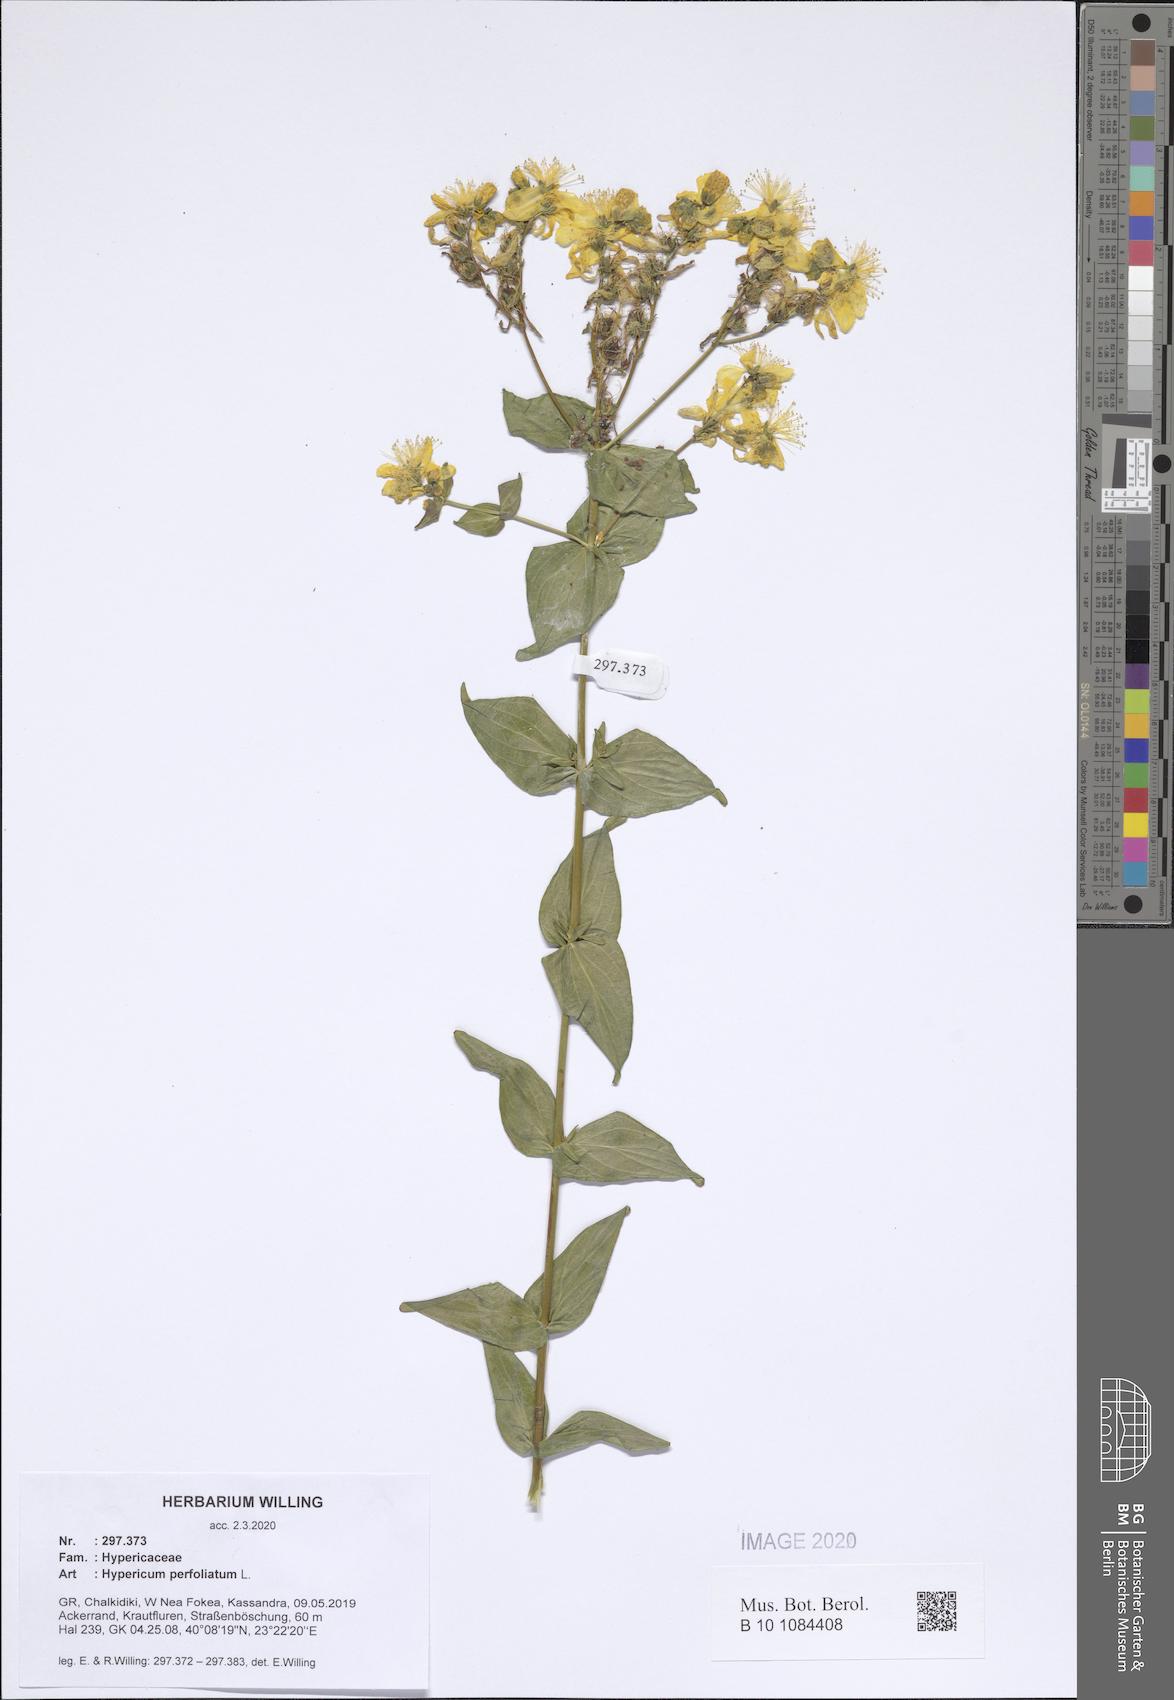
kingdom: Plantae
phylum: Tracheophyta
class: Magnoliopsida
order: Malpighiales
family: Hypericaceae
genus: Hypericum
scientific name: Hypericum perfoliatum
